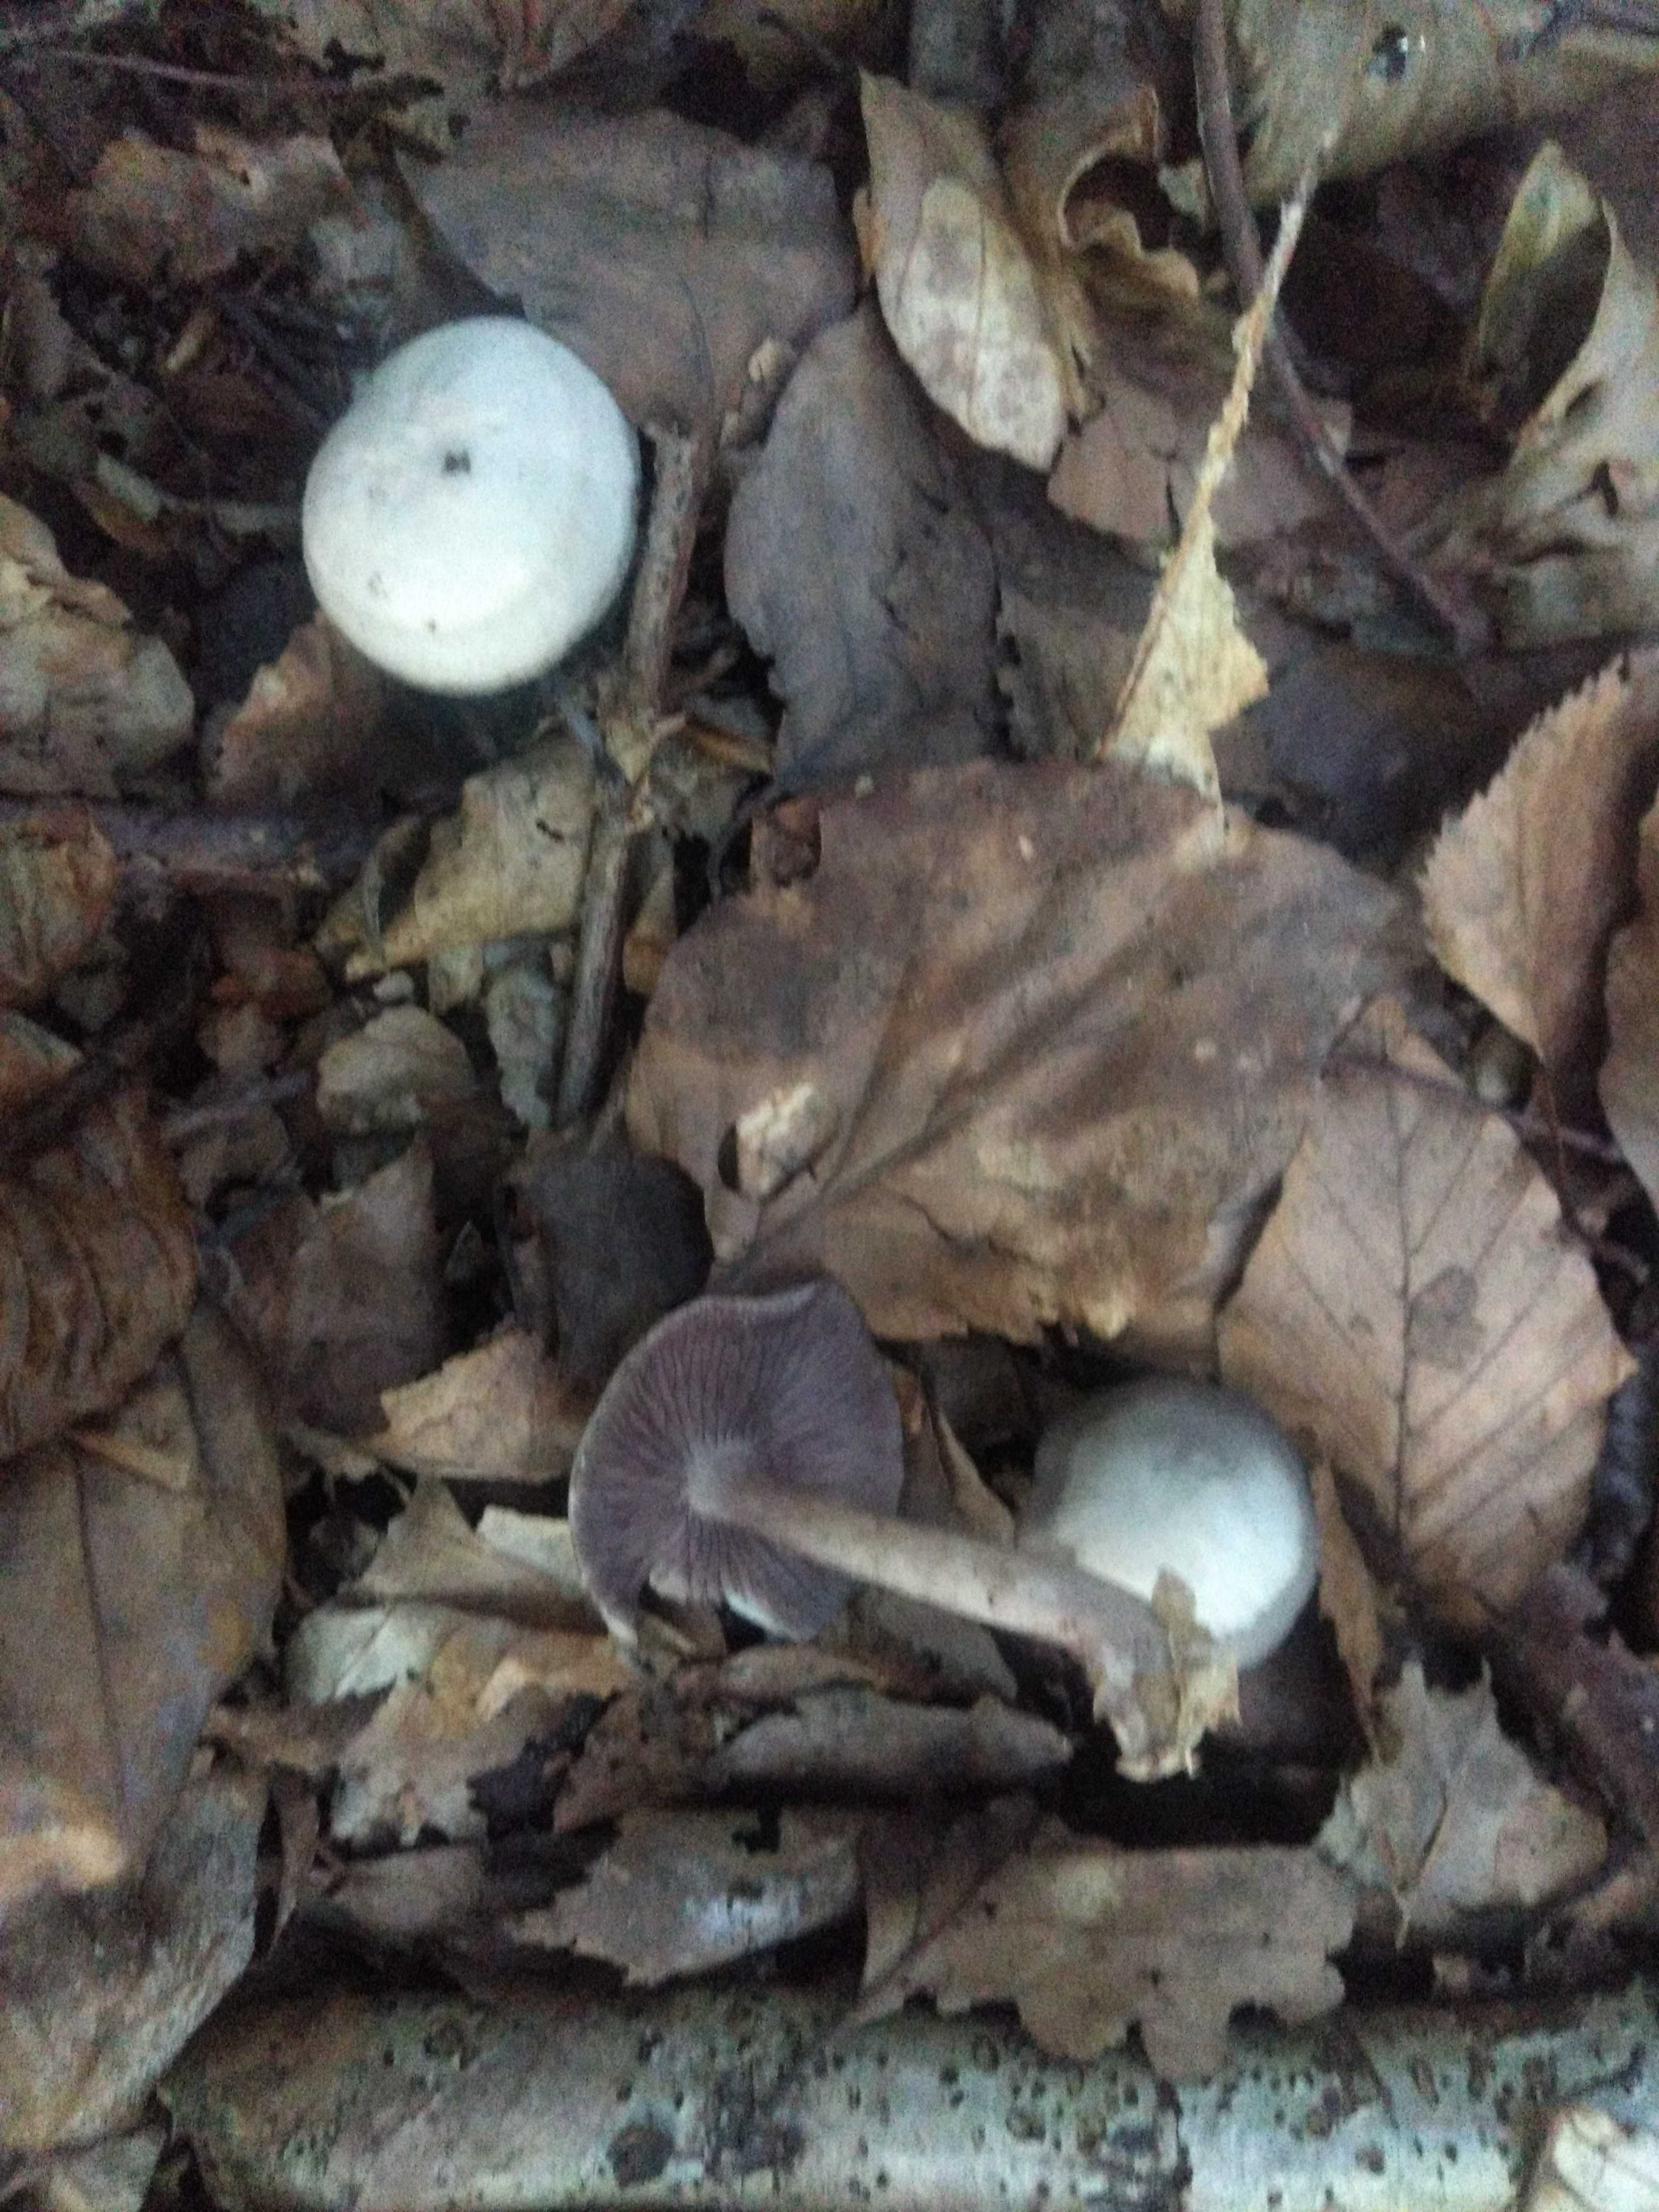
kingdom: Fungi
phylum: Basidiomycota
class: Agaricomycetes
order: Agaricales
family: Mycenaceae
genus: Mycena
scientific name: Mycena pelianthina
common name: mørkbladet huesvamp
